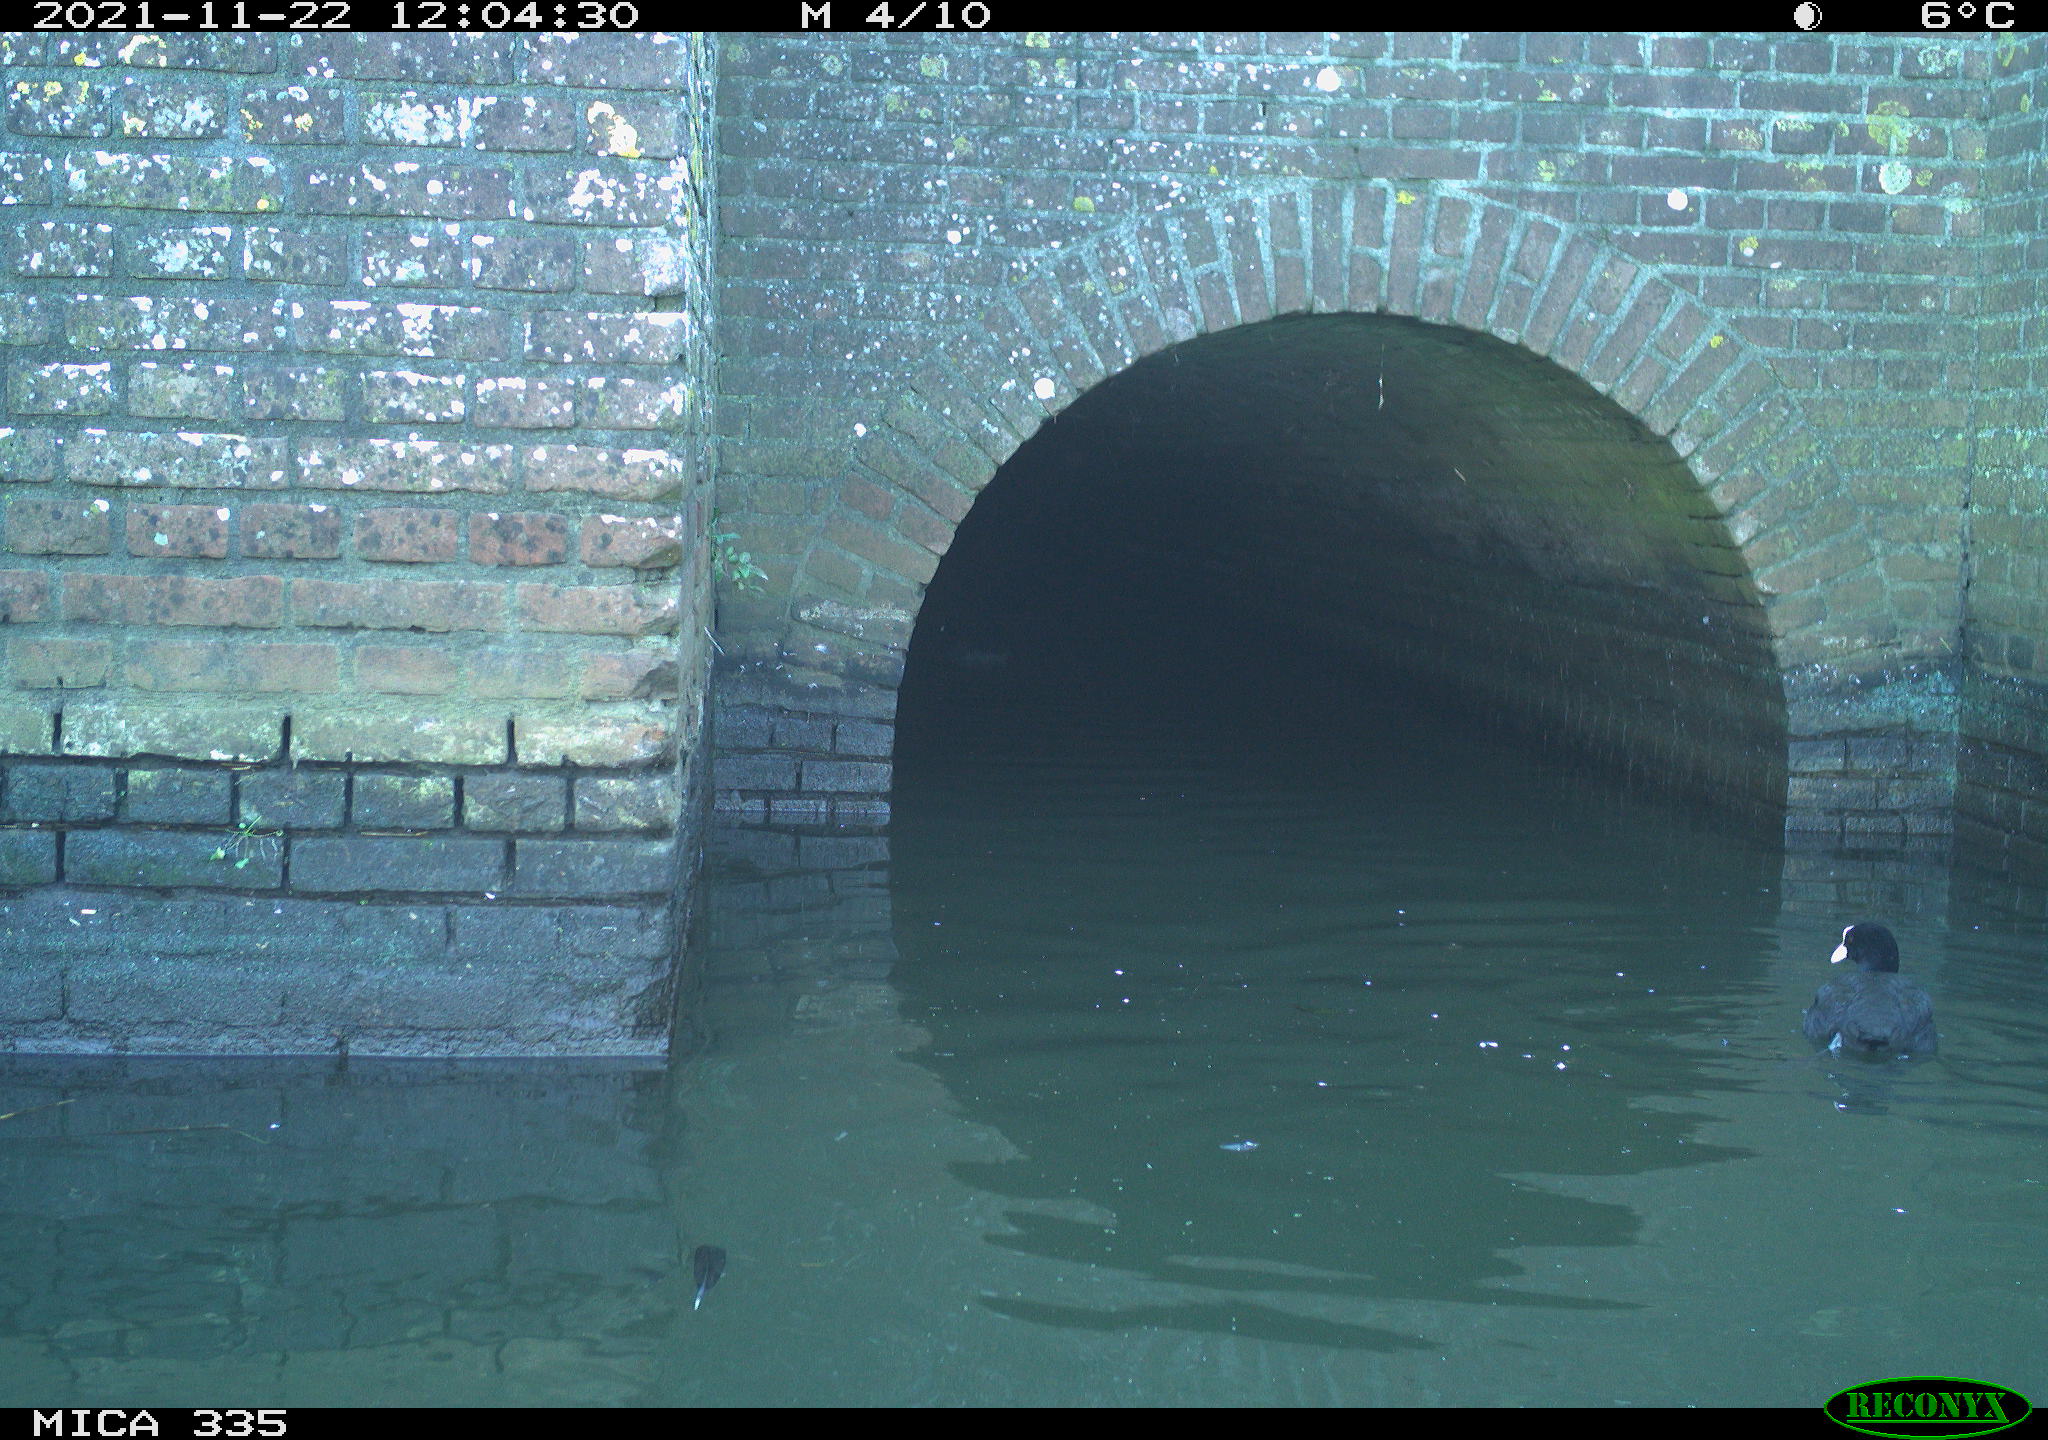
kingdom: Animalia
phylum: Chordata
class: Aves
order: Gruiformes
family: Rallidae
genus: Fulica
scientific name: Fulica atra
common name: Eurasian coot
